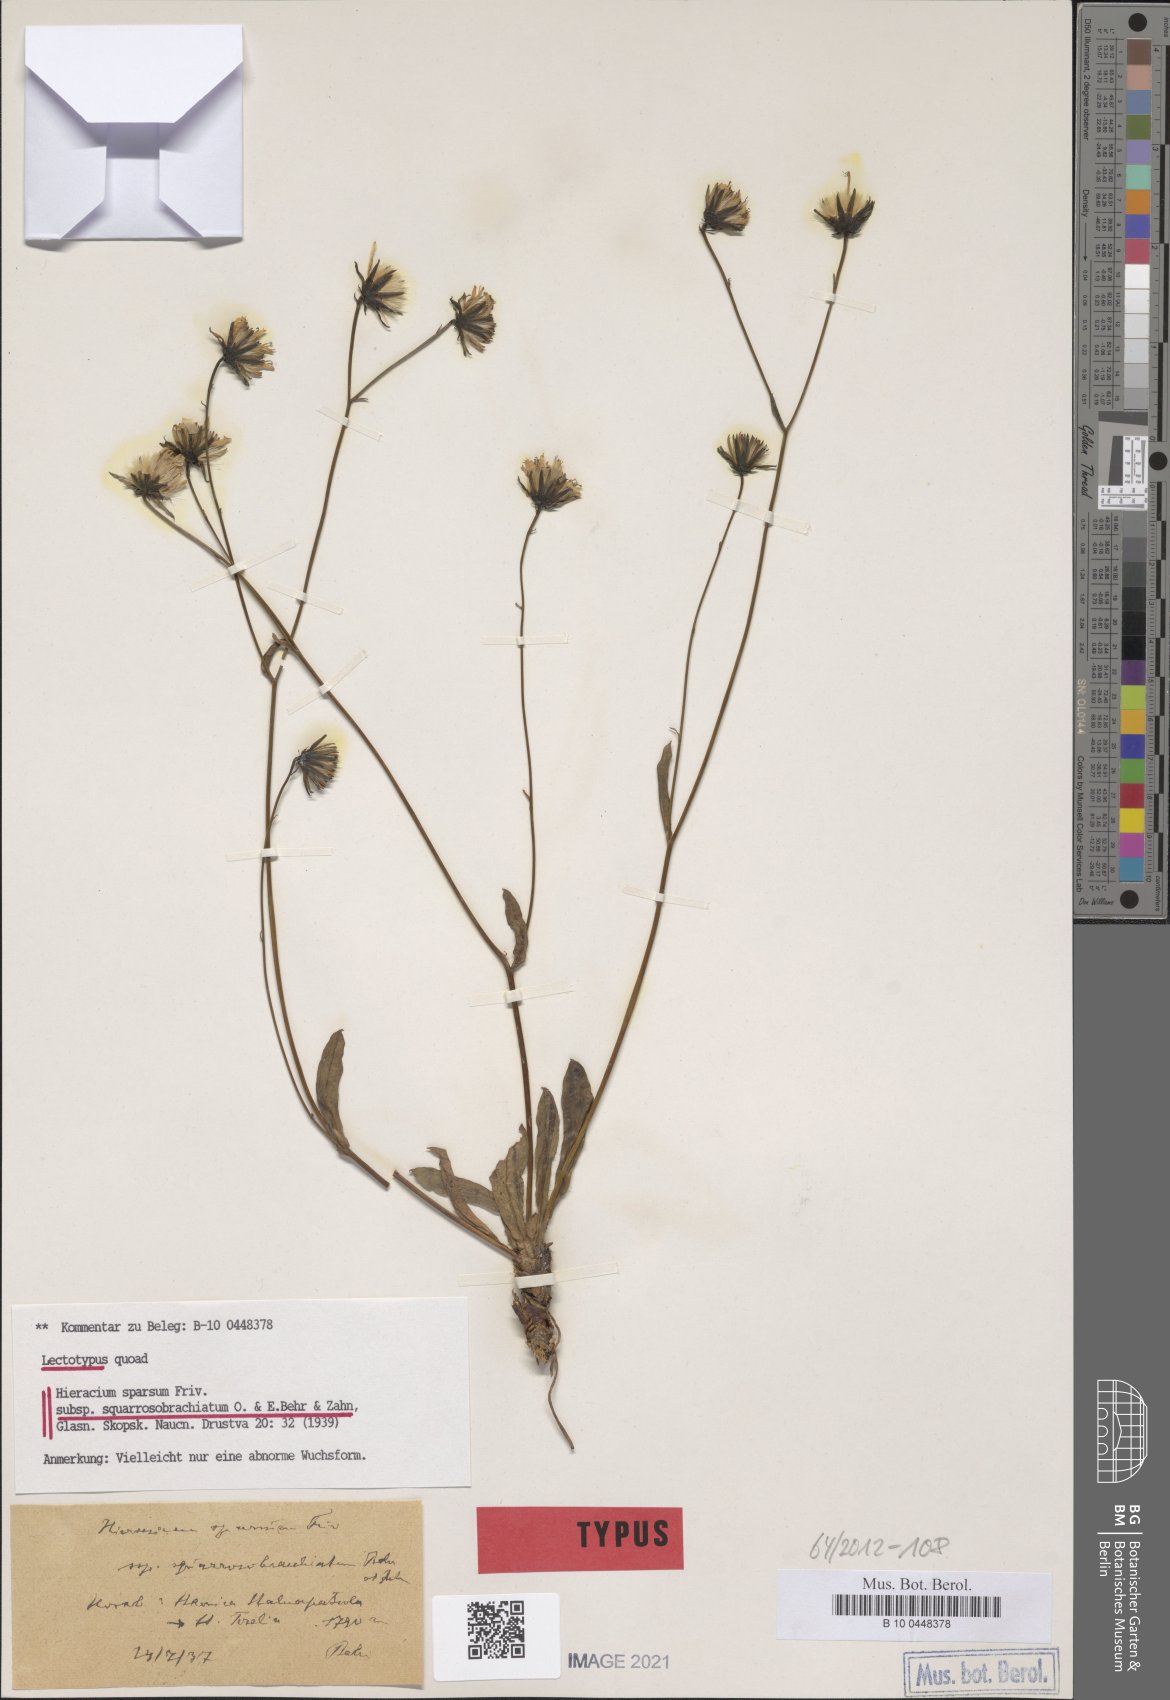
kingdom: Plantae
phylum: Tracheophyta
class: Magnoliopsida
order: Asterales
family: Asteraceae
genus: Hieracium
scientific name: Hieracium sparsum
